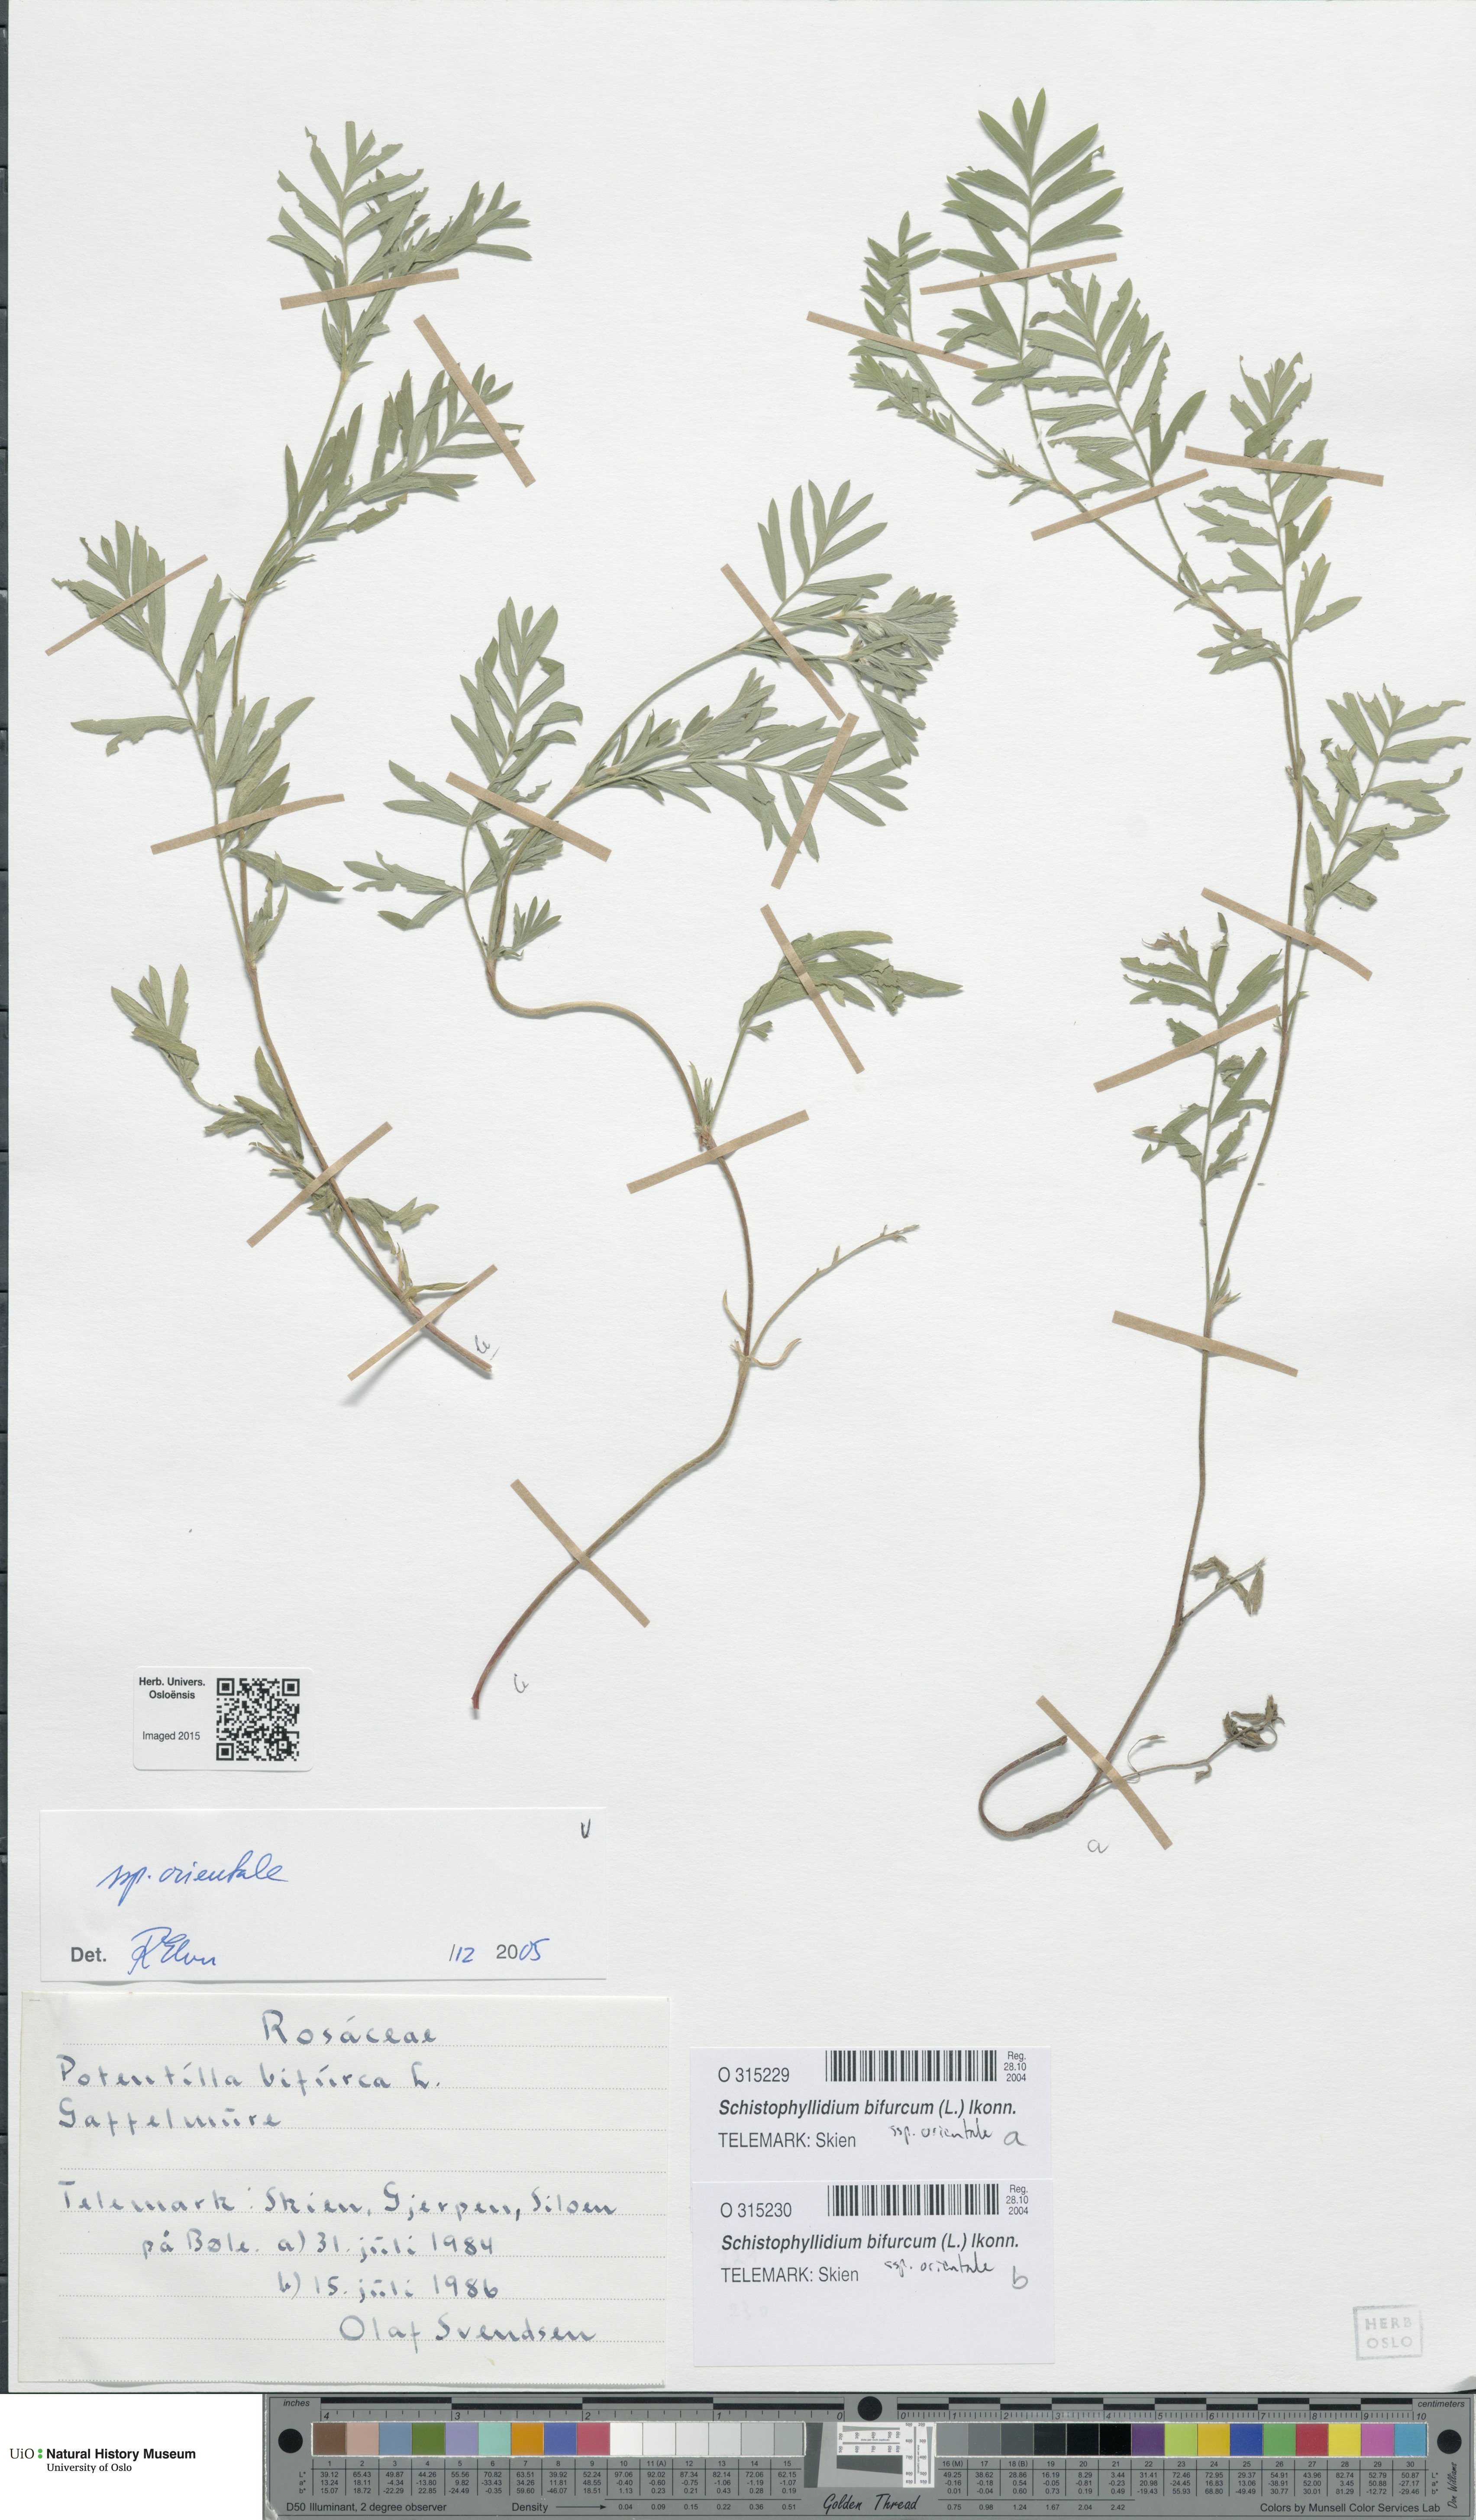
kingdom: Plantae
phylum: Tracheophyta
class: Magnoliopsida
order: Rosales
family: Rosaceae
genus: Sibbaldianthe
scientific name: Sibbaldianthe orientalis
